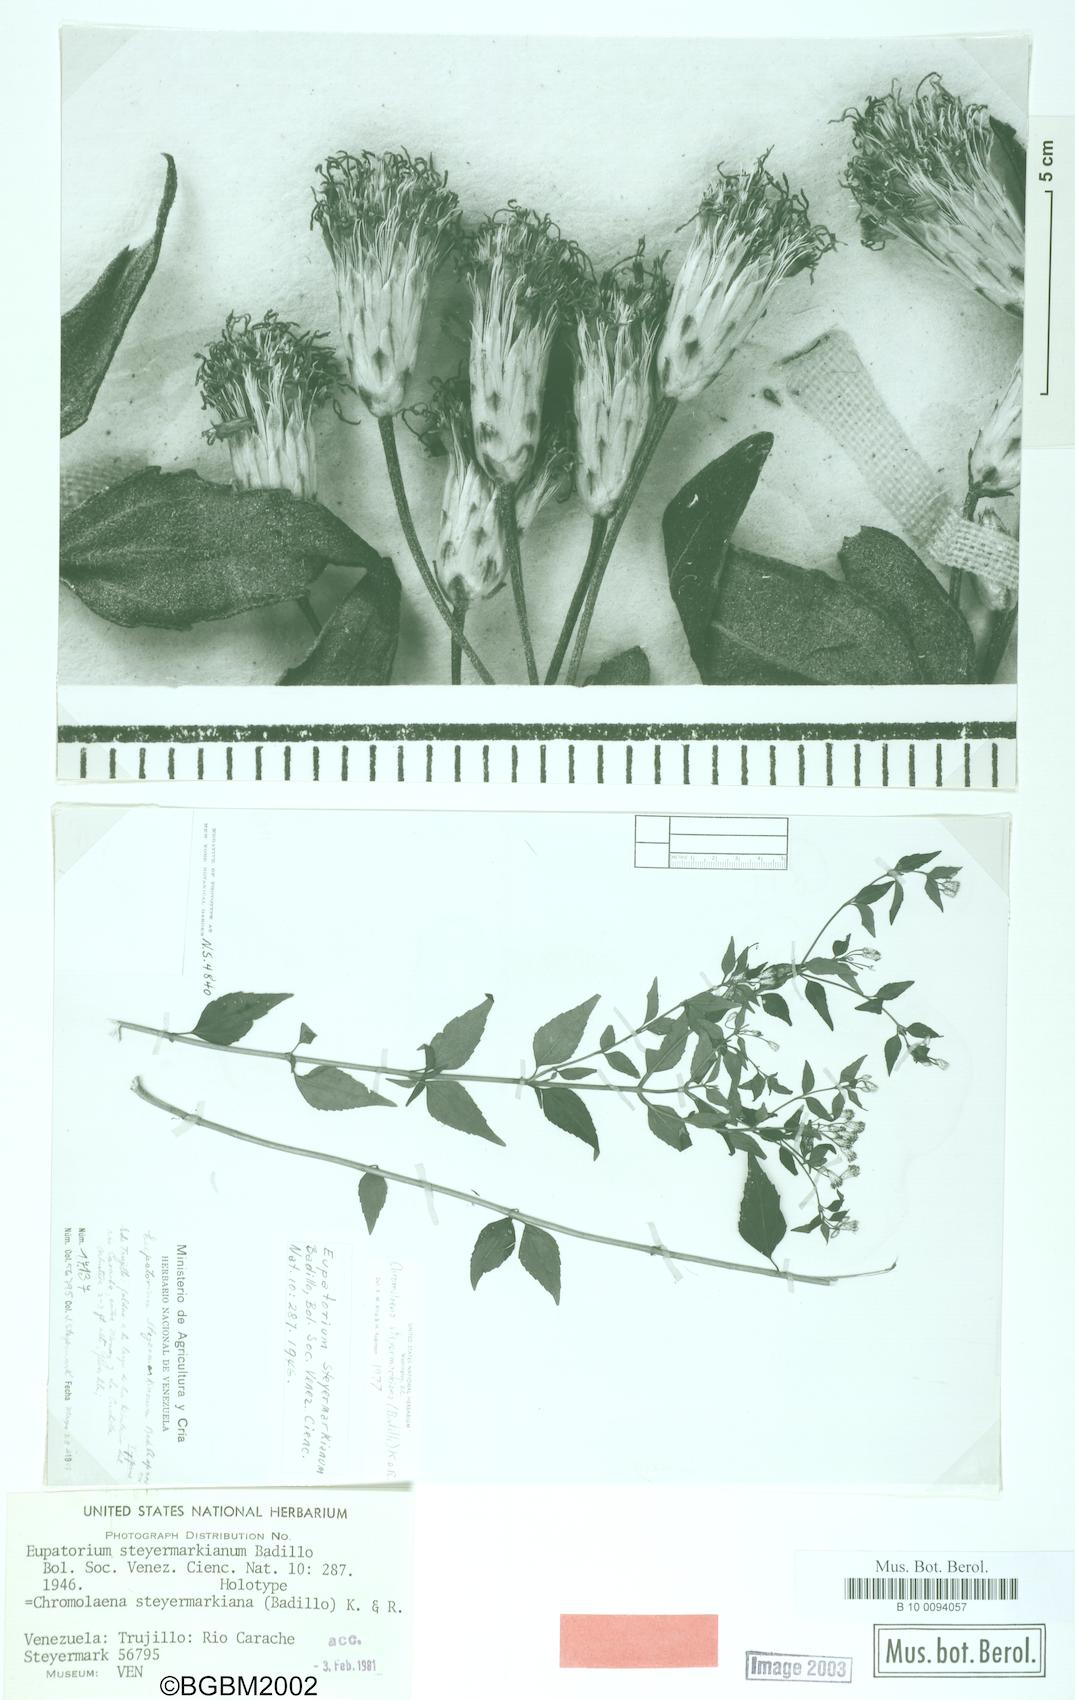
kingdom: Plantae
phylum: Tracheophyta
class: Magnoliopsida
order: Asterales
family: Asteraceae
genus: Chromolaena
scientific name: Chromolaena steyermarkiana
